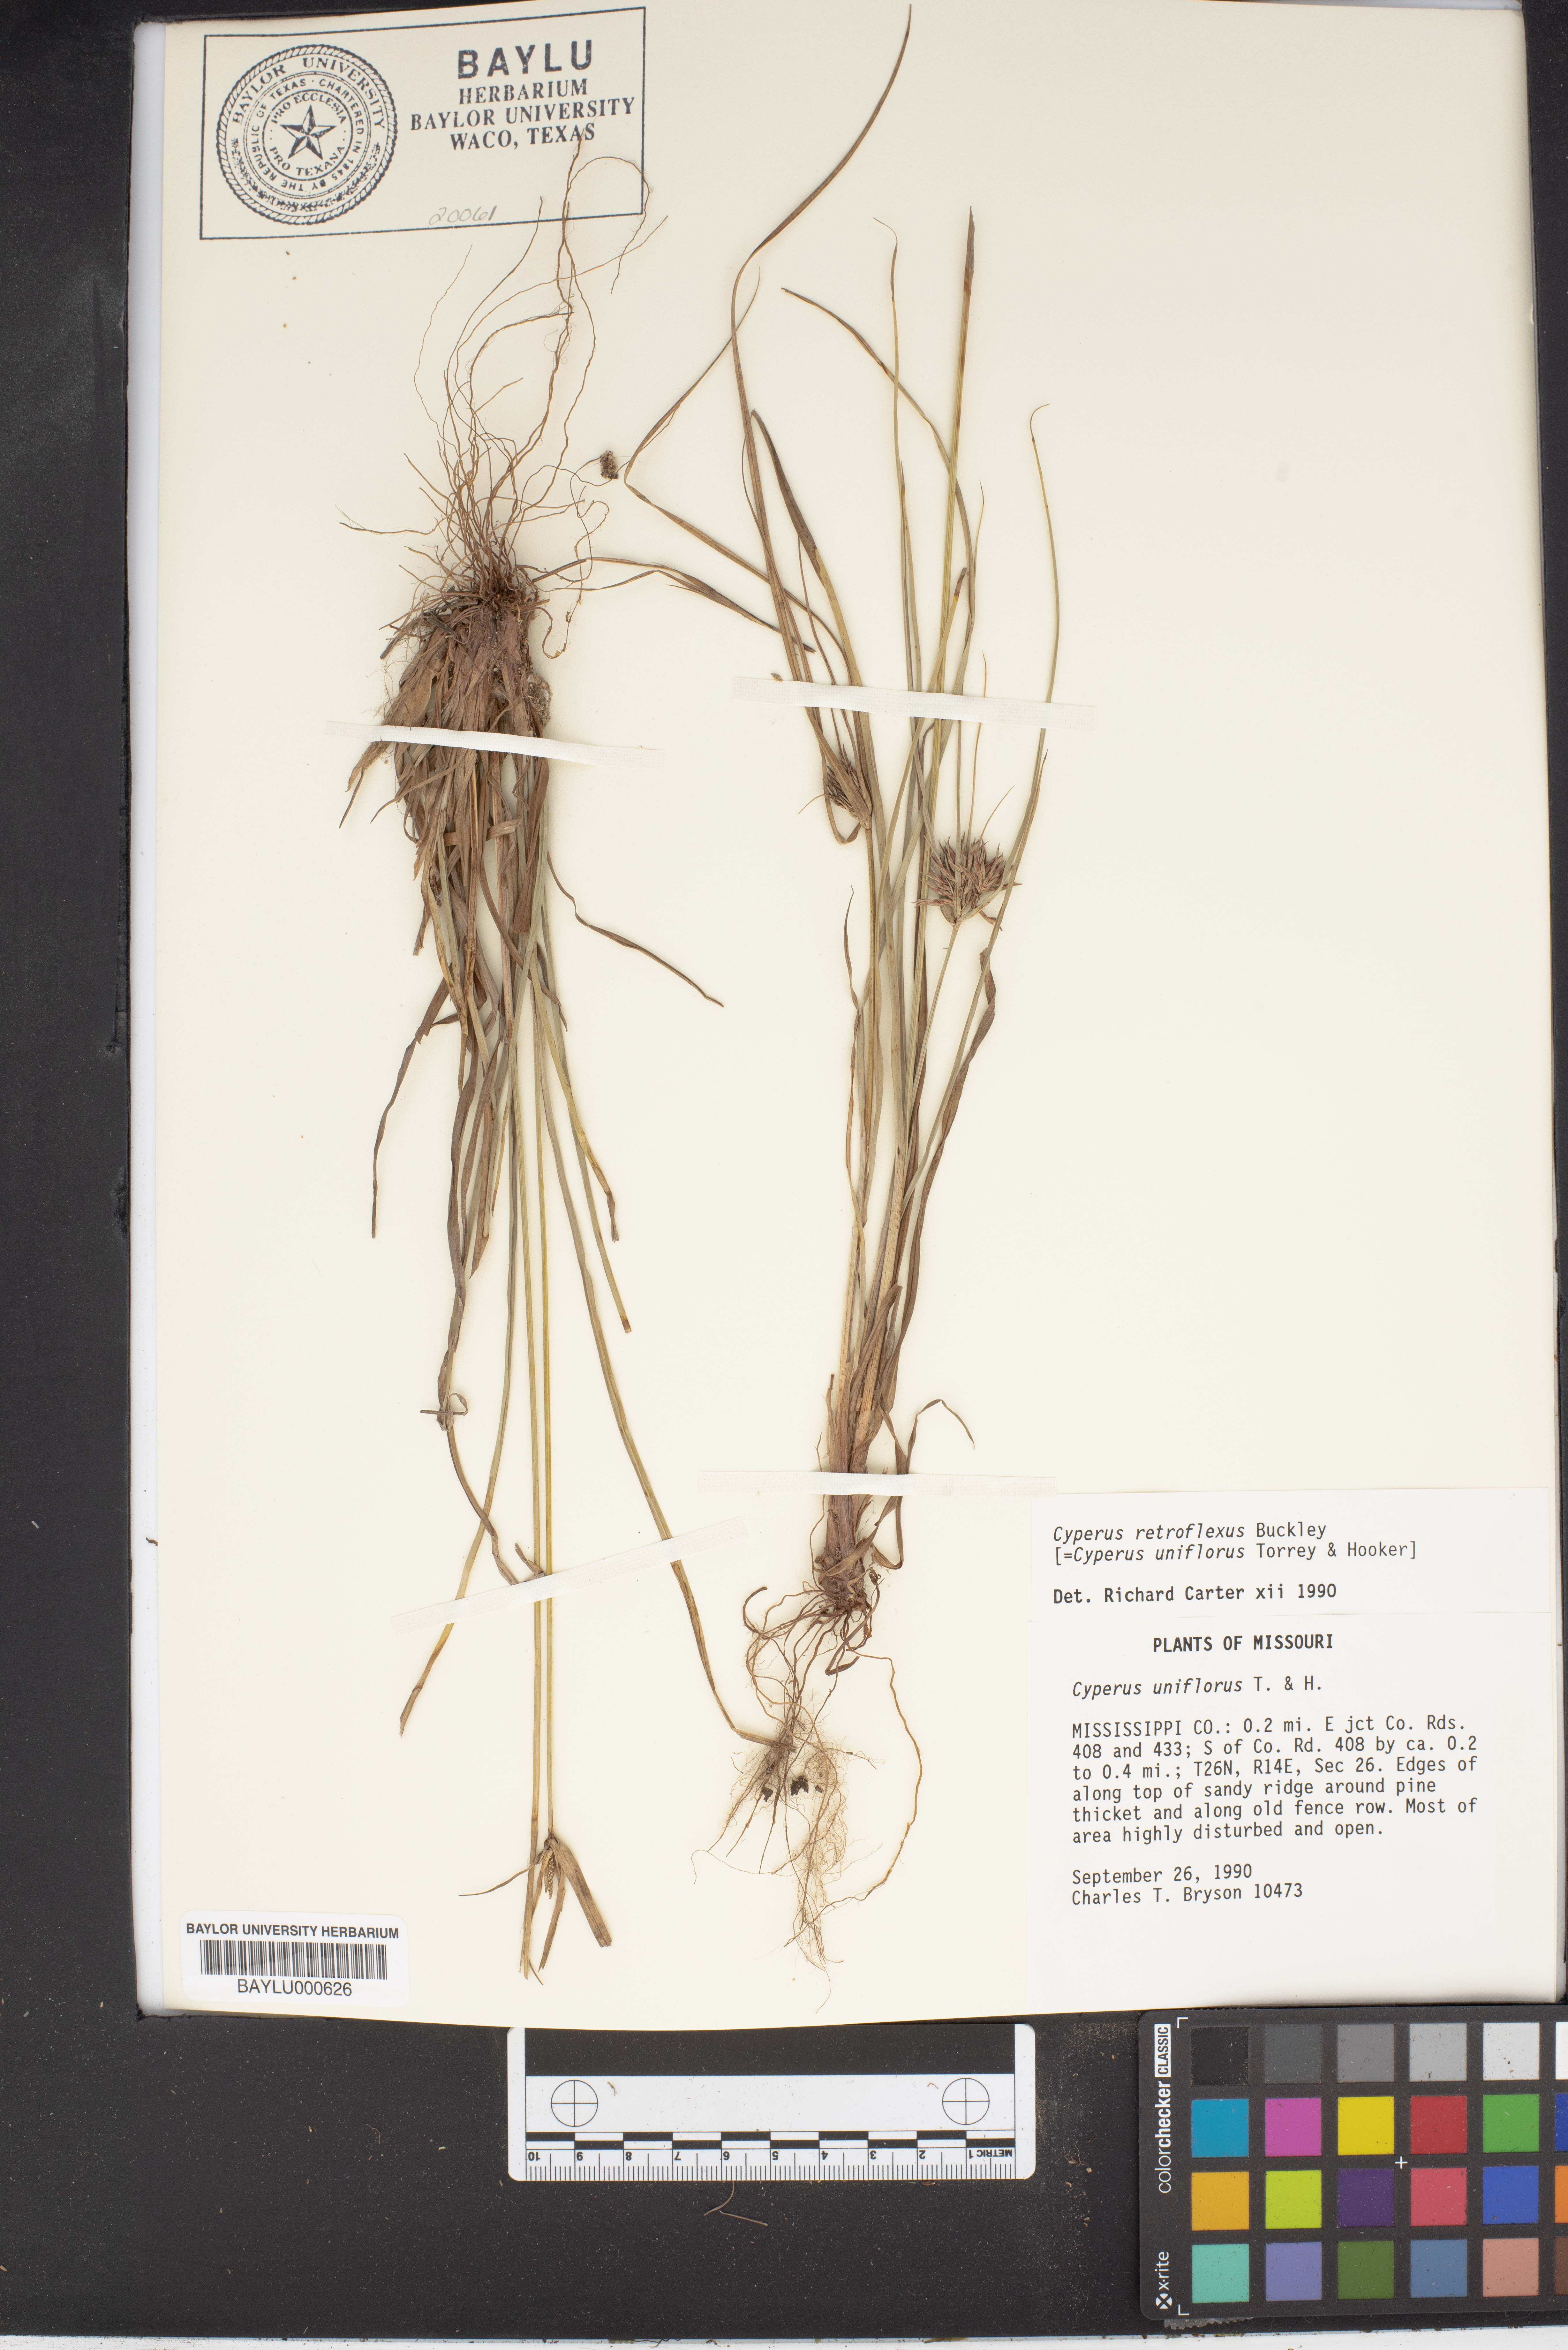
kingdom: Plantae
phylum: Tracheophyta
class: Liliopsida
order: Poales
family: Cyperaceae
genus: Cyperus
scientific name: Cyperus retroflexus
